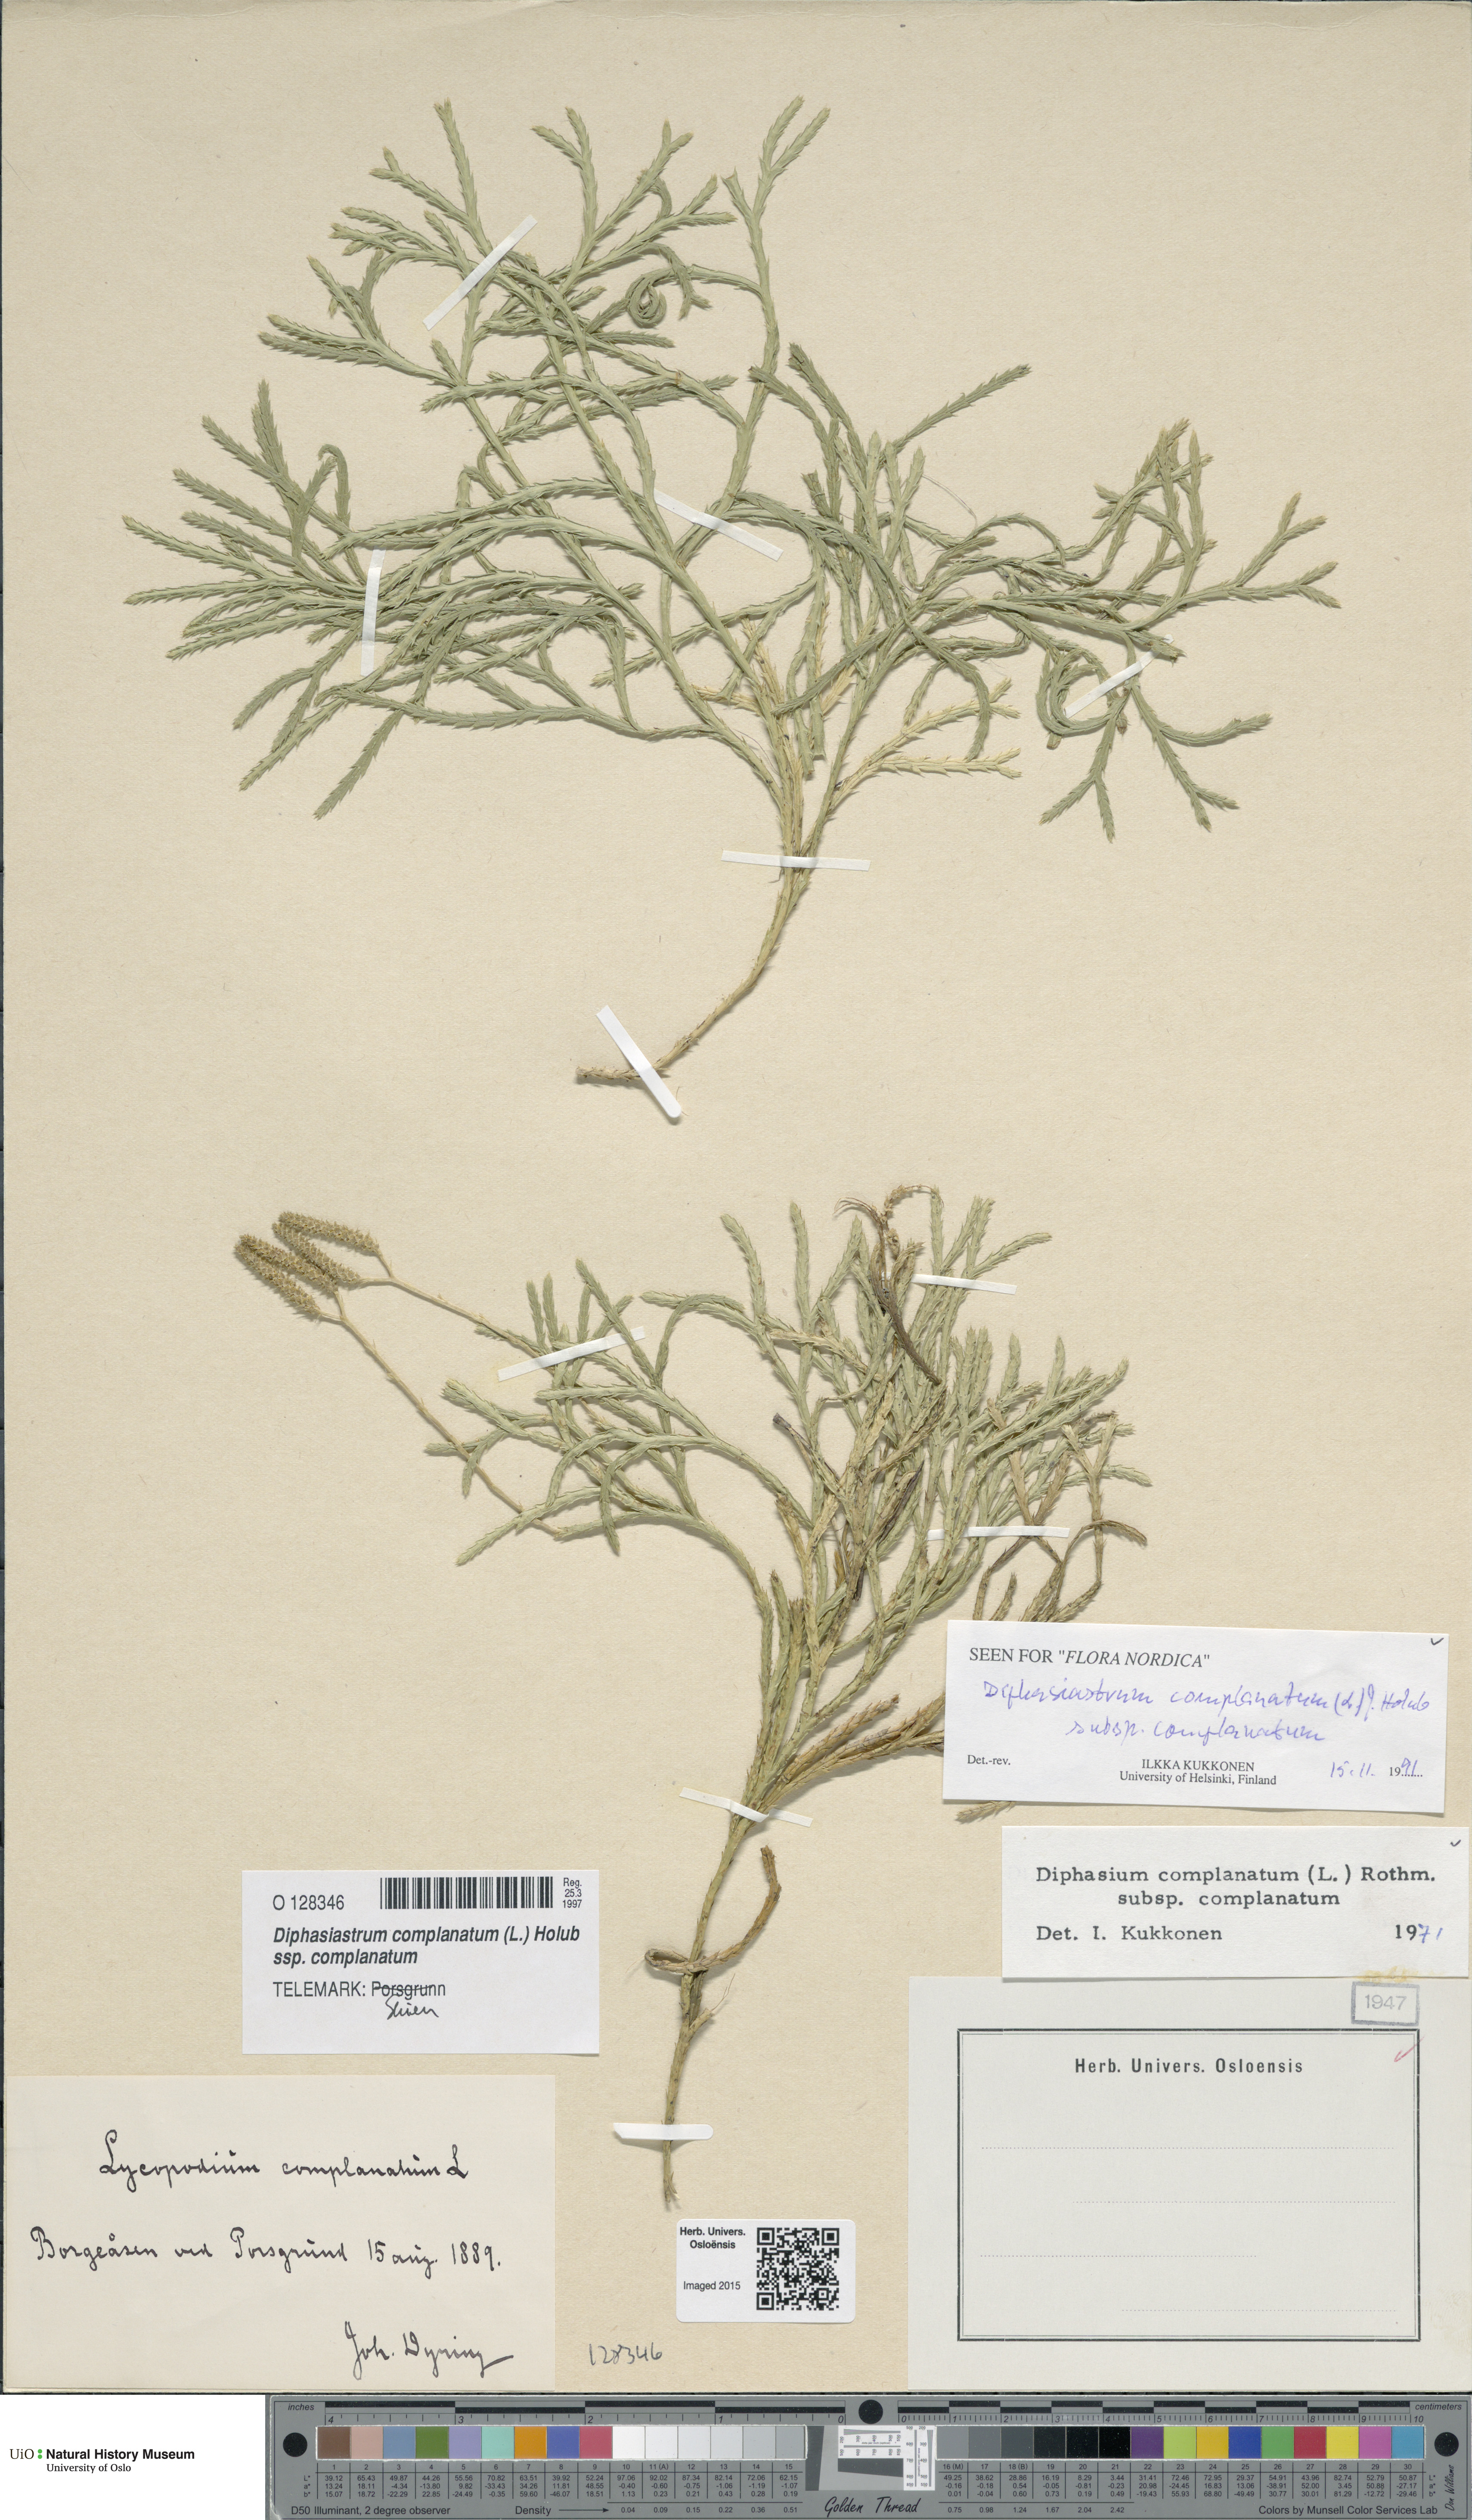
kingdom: Plantae
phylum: Tracheophyta
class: Lycopodiopsida
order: Lycopodiales
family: Lycopodiaceae
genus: Diphasiastrum
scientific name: Diphasiastrum complanatum
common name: Northern running-pine
